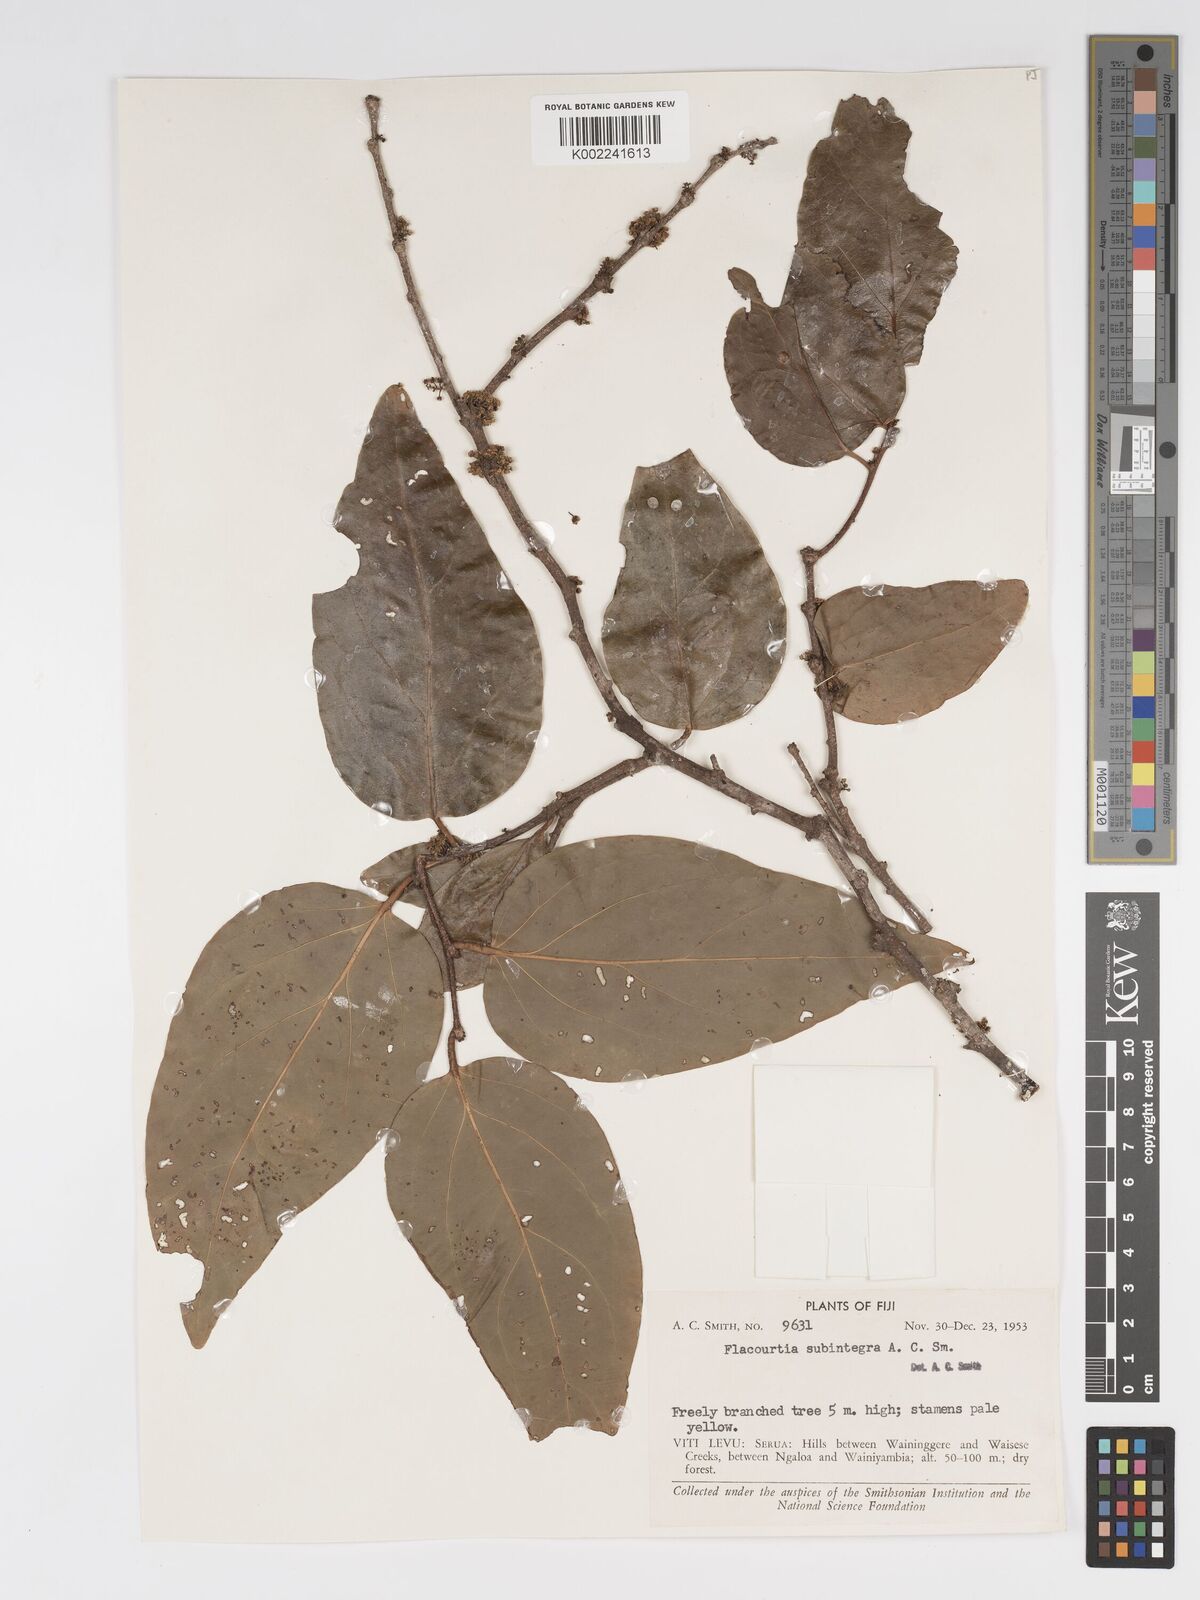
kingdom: Plantae
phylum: Tracheophyta
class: Magnoliopsida
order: Malpighiales
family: Salicaceae
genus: Flacourtia
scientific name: Flacourtia subintegra
